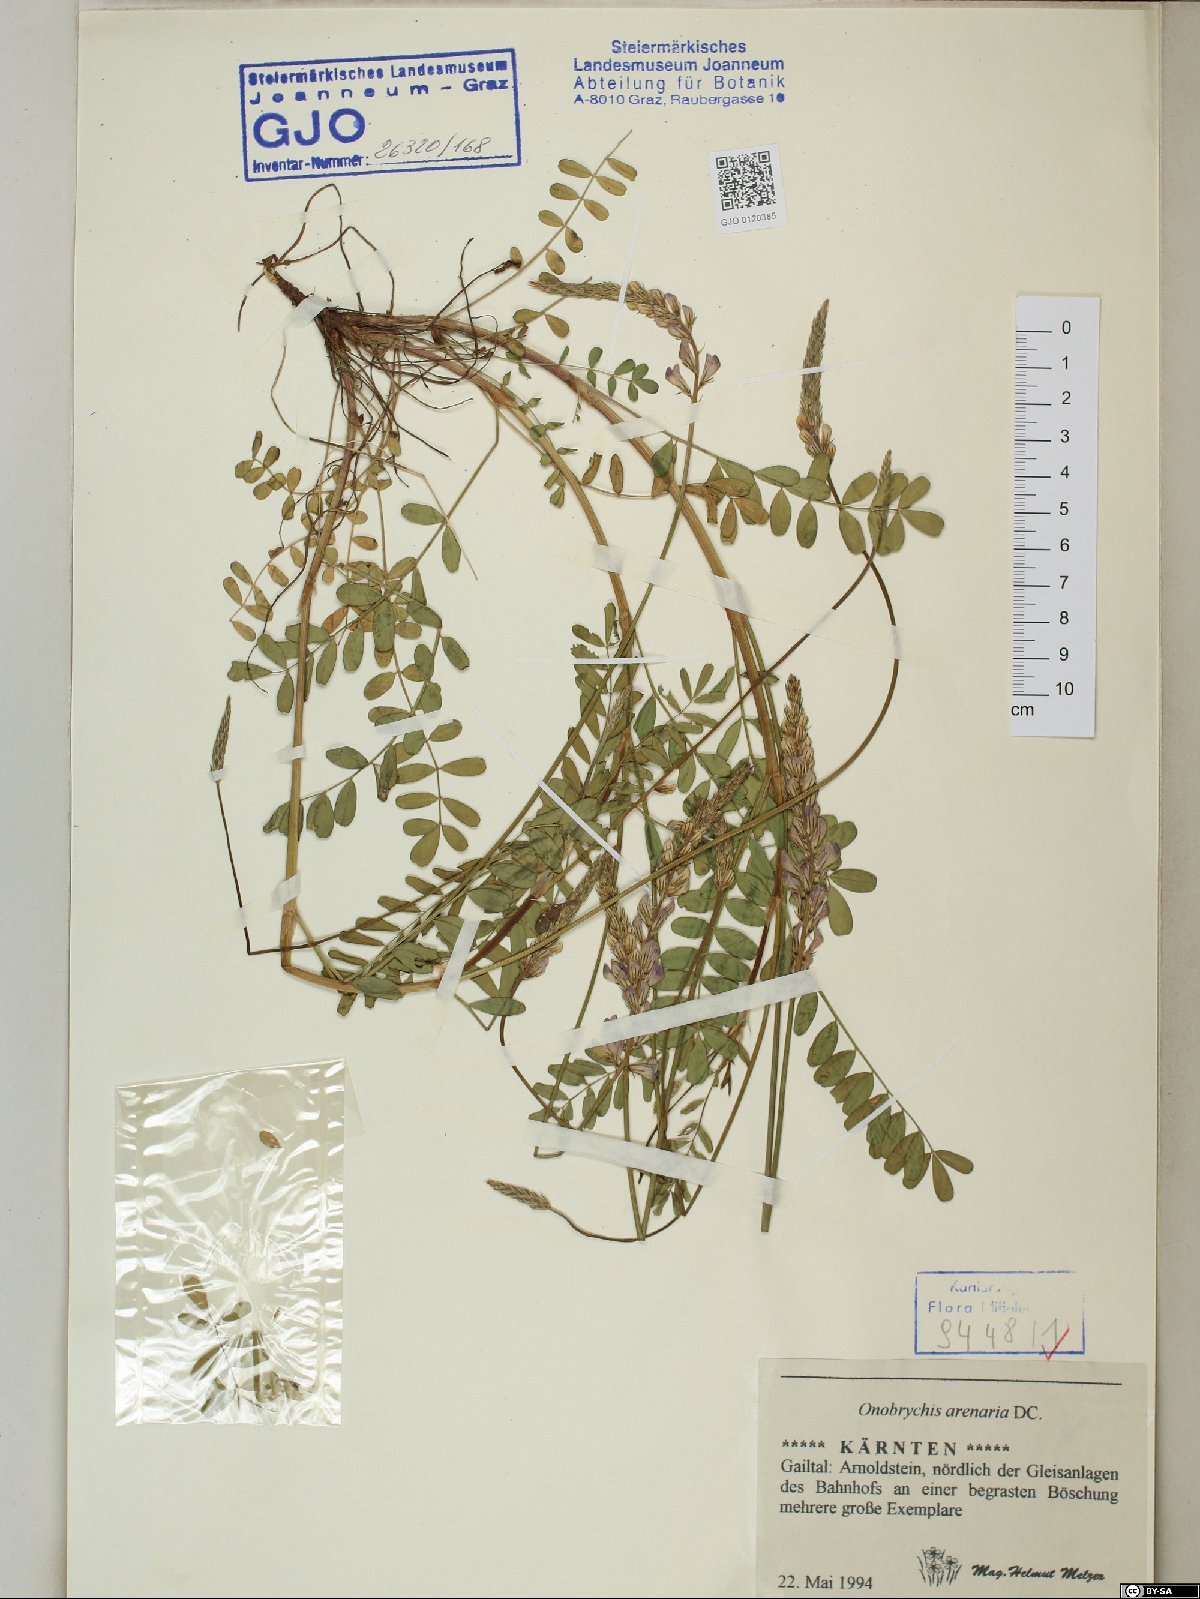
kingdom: Plantae
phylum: Tracheophyta
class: Magnoliopsida
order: Fabales
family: Fabaceae
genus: Onobrychis
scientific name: Onobrychis arenaria
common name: Sand esparcet
